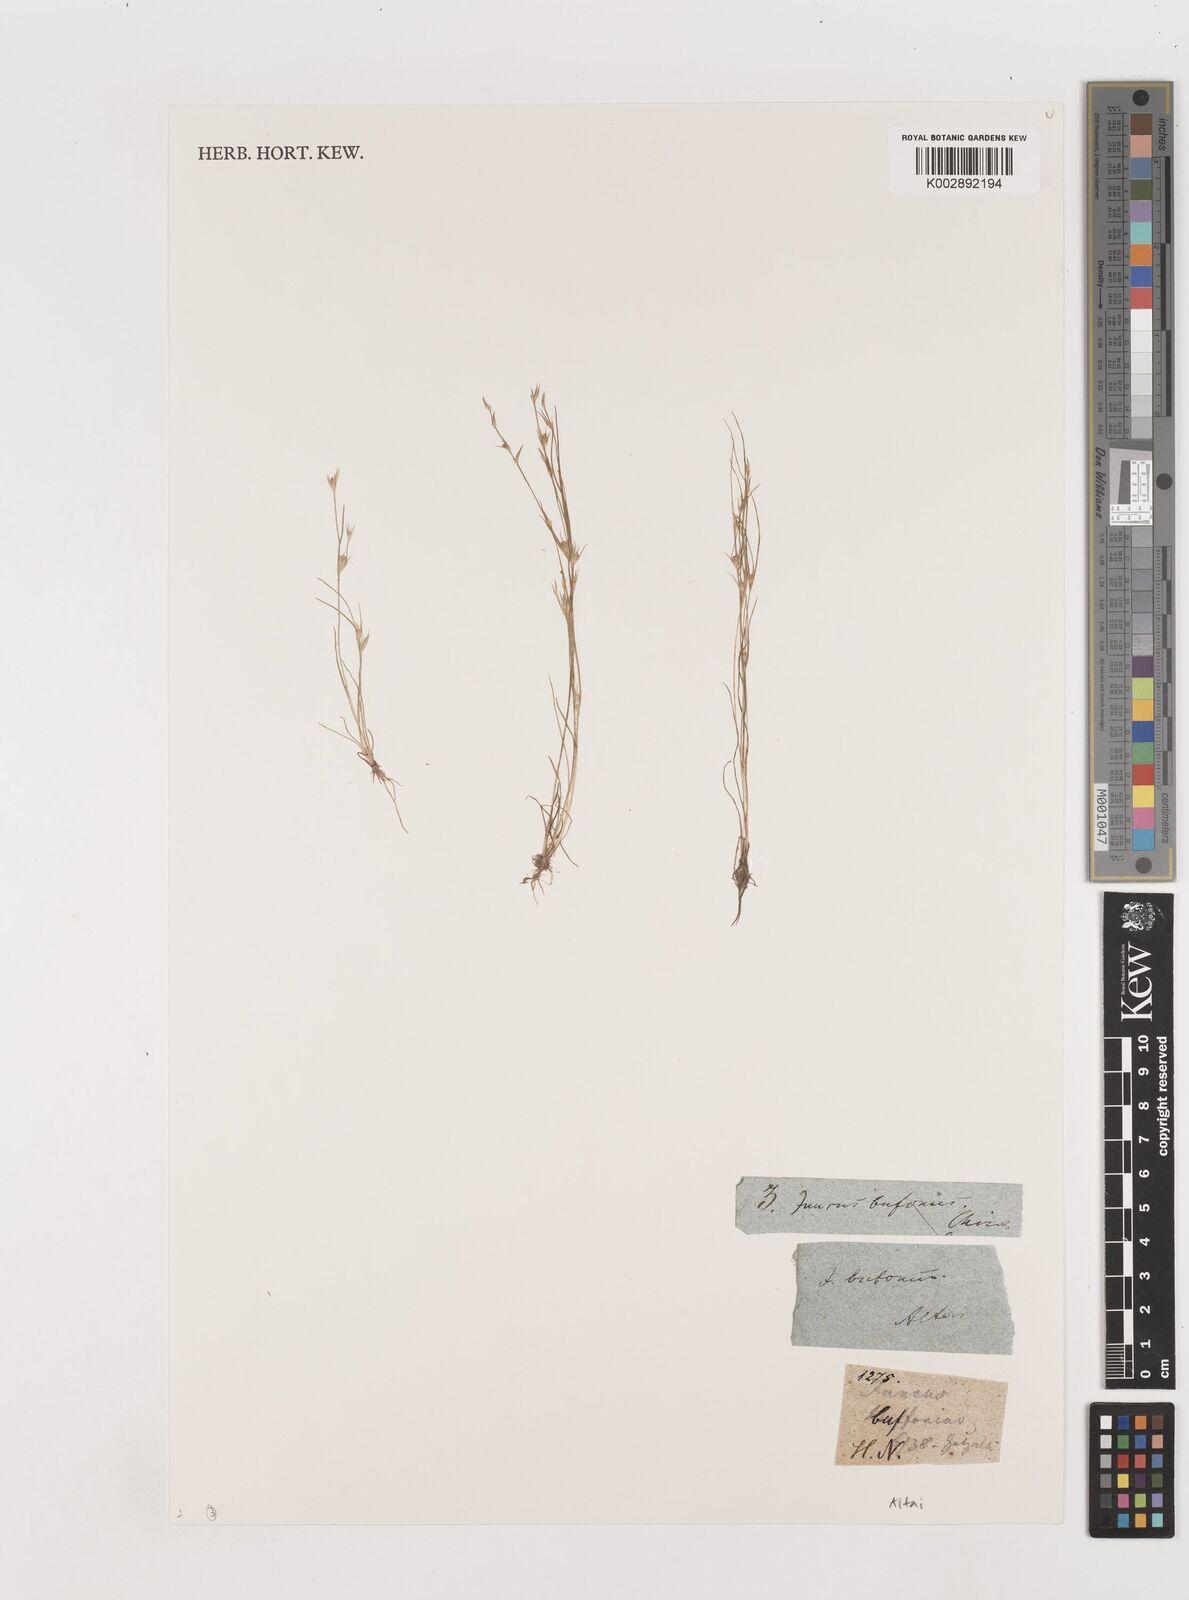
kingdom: Plantae
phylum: Tracheophyta
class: Liliopsida
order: Poales
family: Juncaceae
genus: Juncus
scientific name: Juncus bufonius
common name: Toad rush
